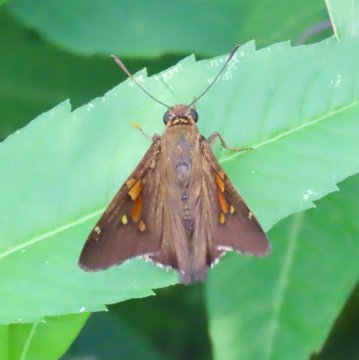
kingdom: Animalia
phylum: Arthropoda
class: Insecta
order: Lepidoptera
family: Hesperiidae
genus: Epargyreus
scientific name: Epargyreus clarus
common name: Silver-spotted Skipper
